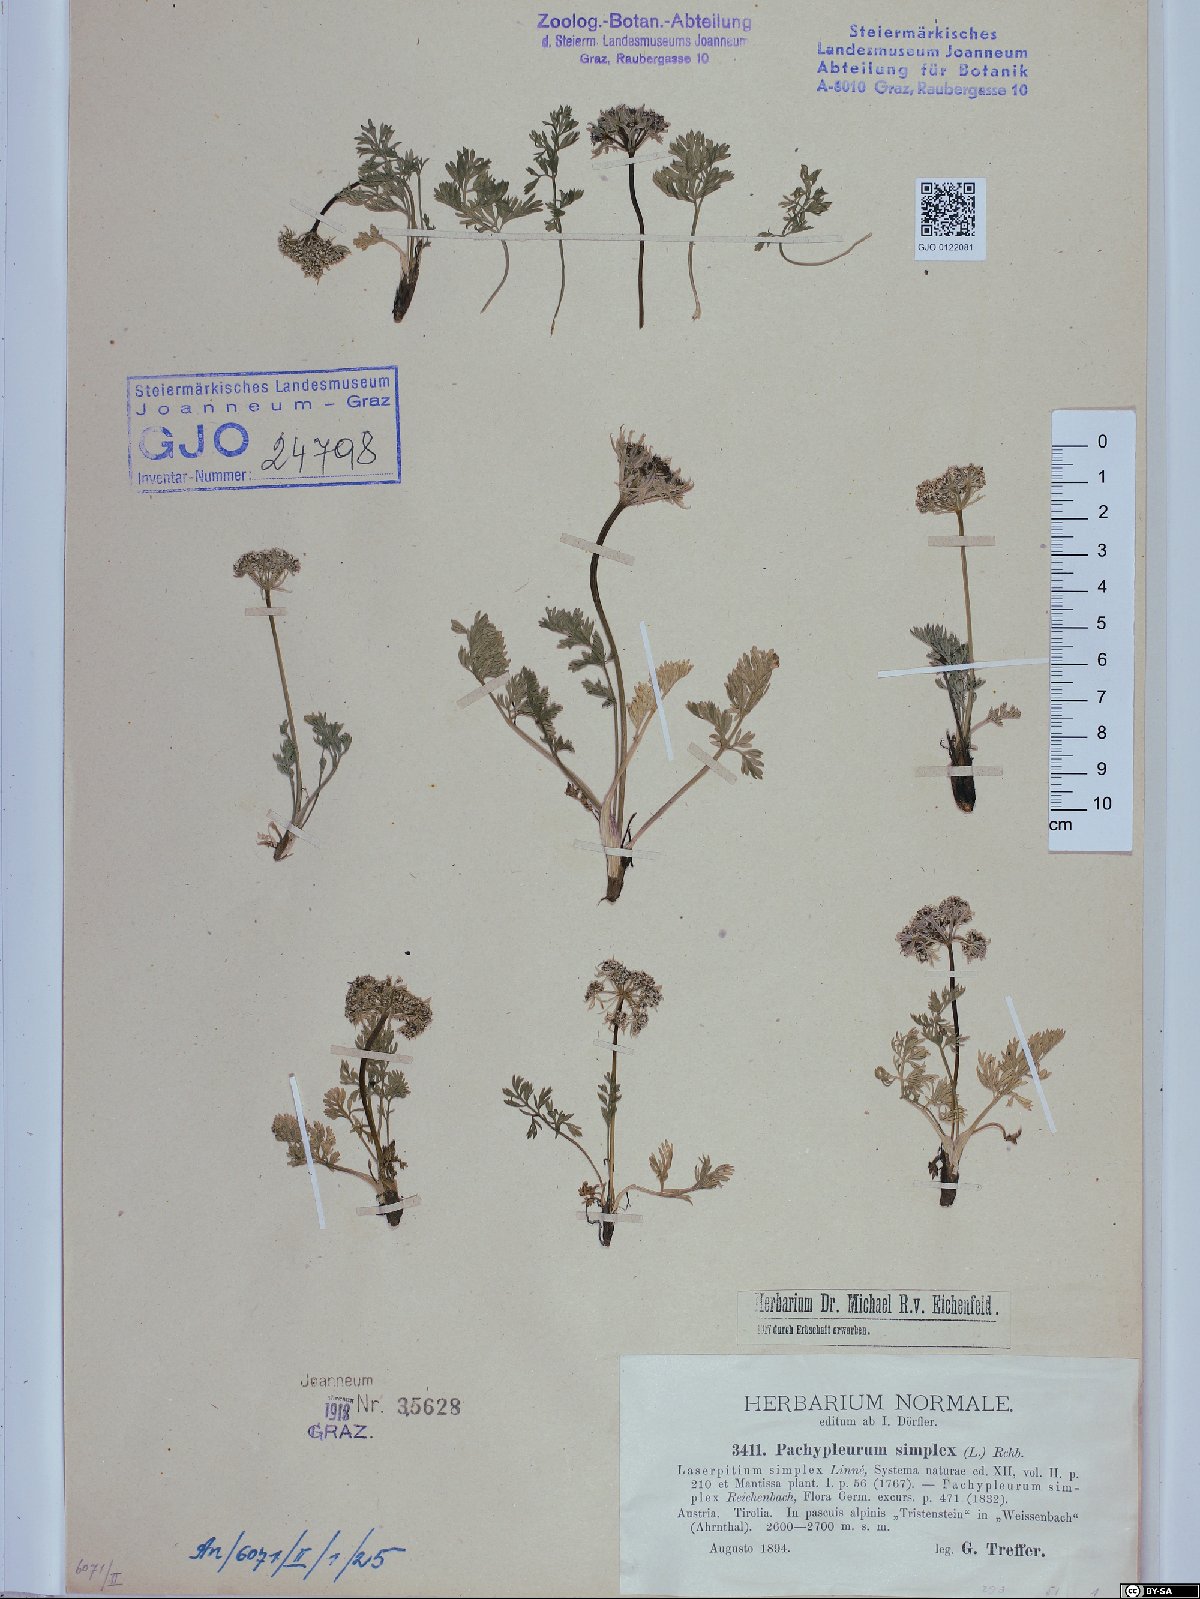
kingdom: Plantae
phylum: Tracheophyta
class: Magnoliopsida
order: Apiales
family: Apiaceae
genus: Pachypleurum
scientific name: Pachypleurum mutellinoides
